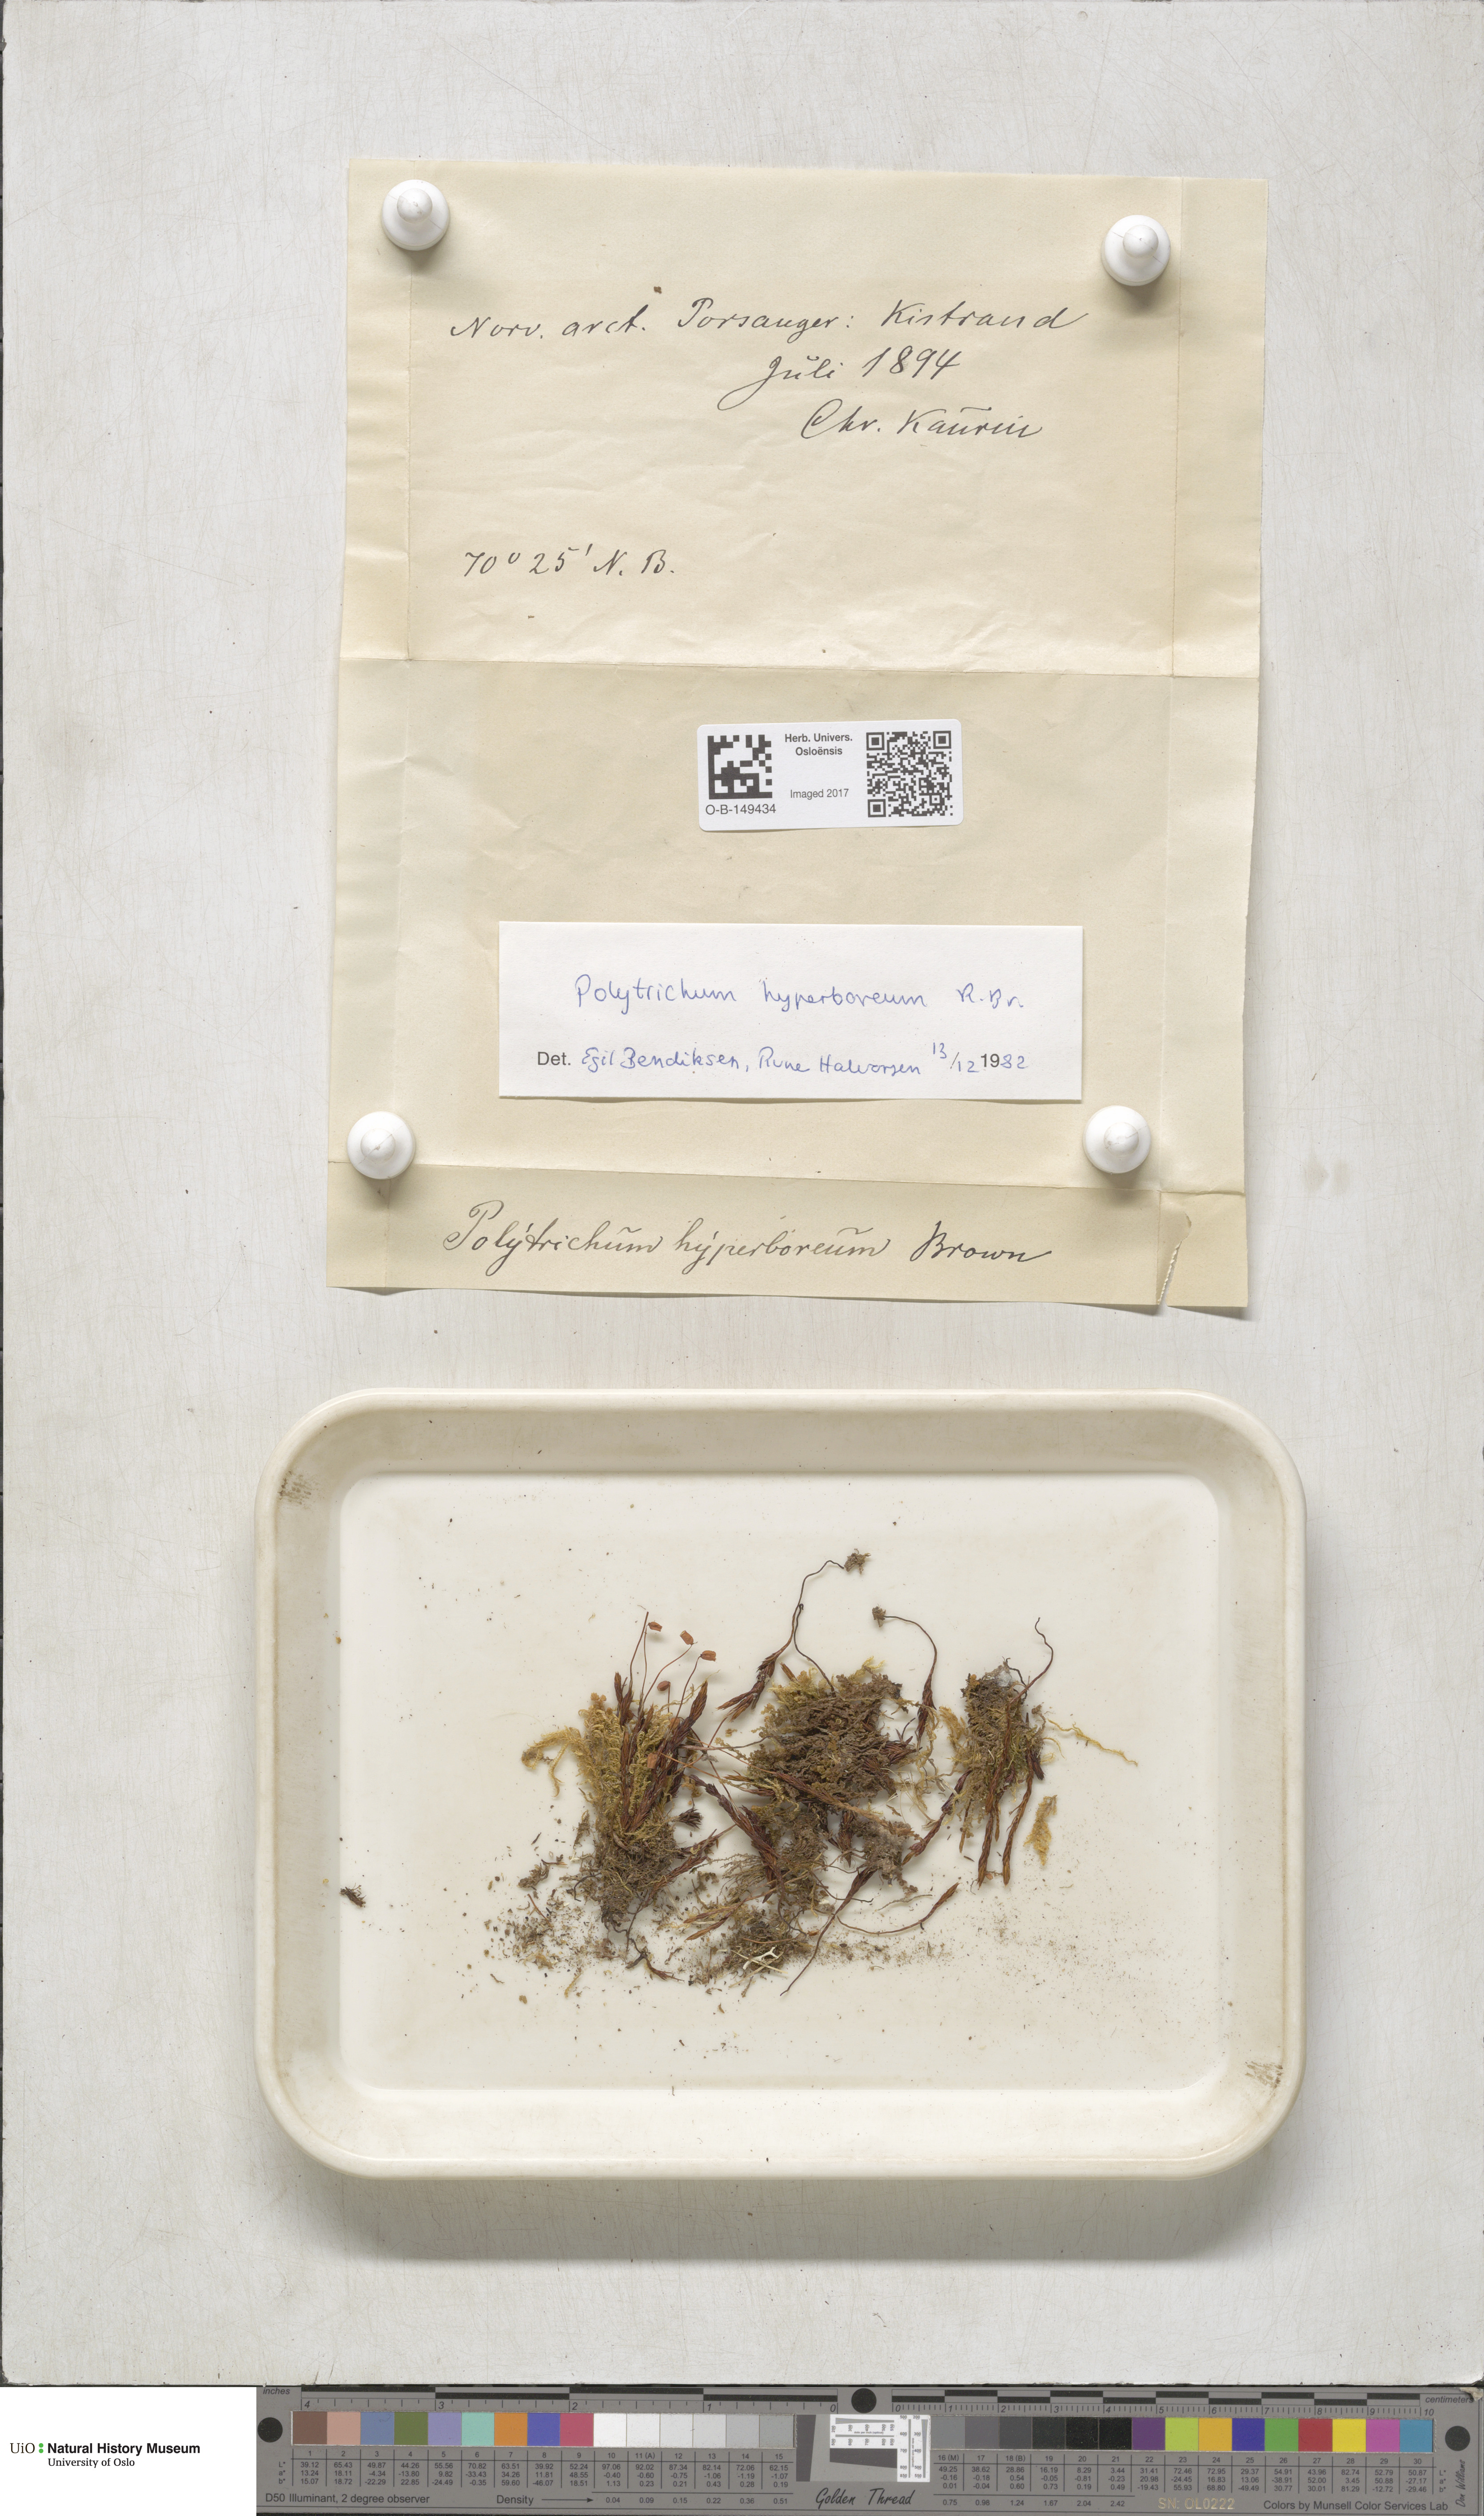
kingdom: Plantae
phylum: Bryophyta
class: Polytrichopsida
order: Polytrichales
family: Polytrichaceae
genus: Polytrichum
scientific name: Polytrichum hyperboreum
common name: Hyperboreal haircap moss
